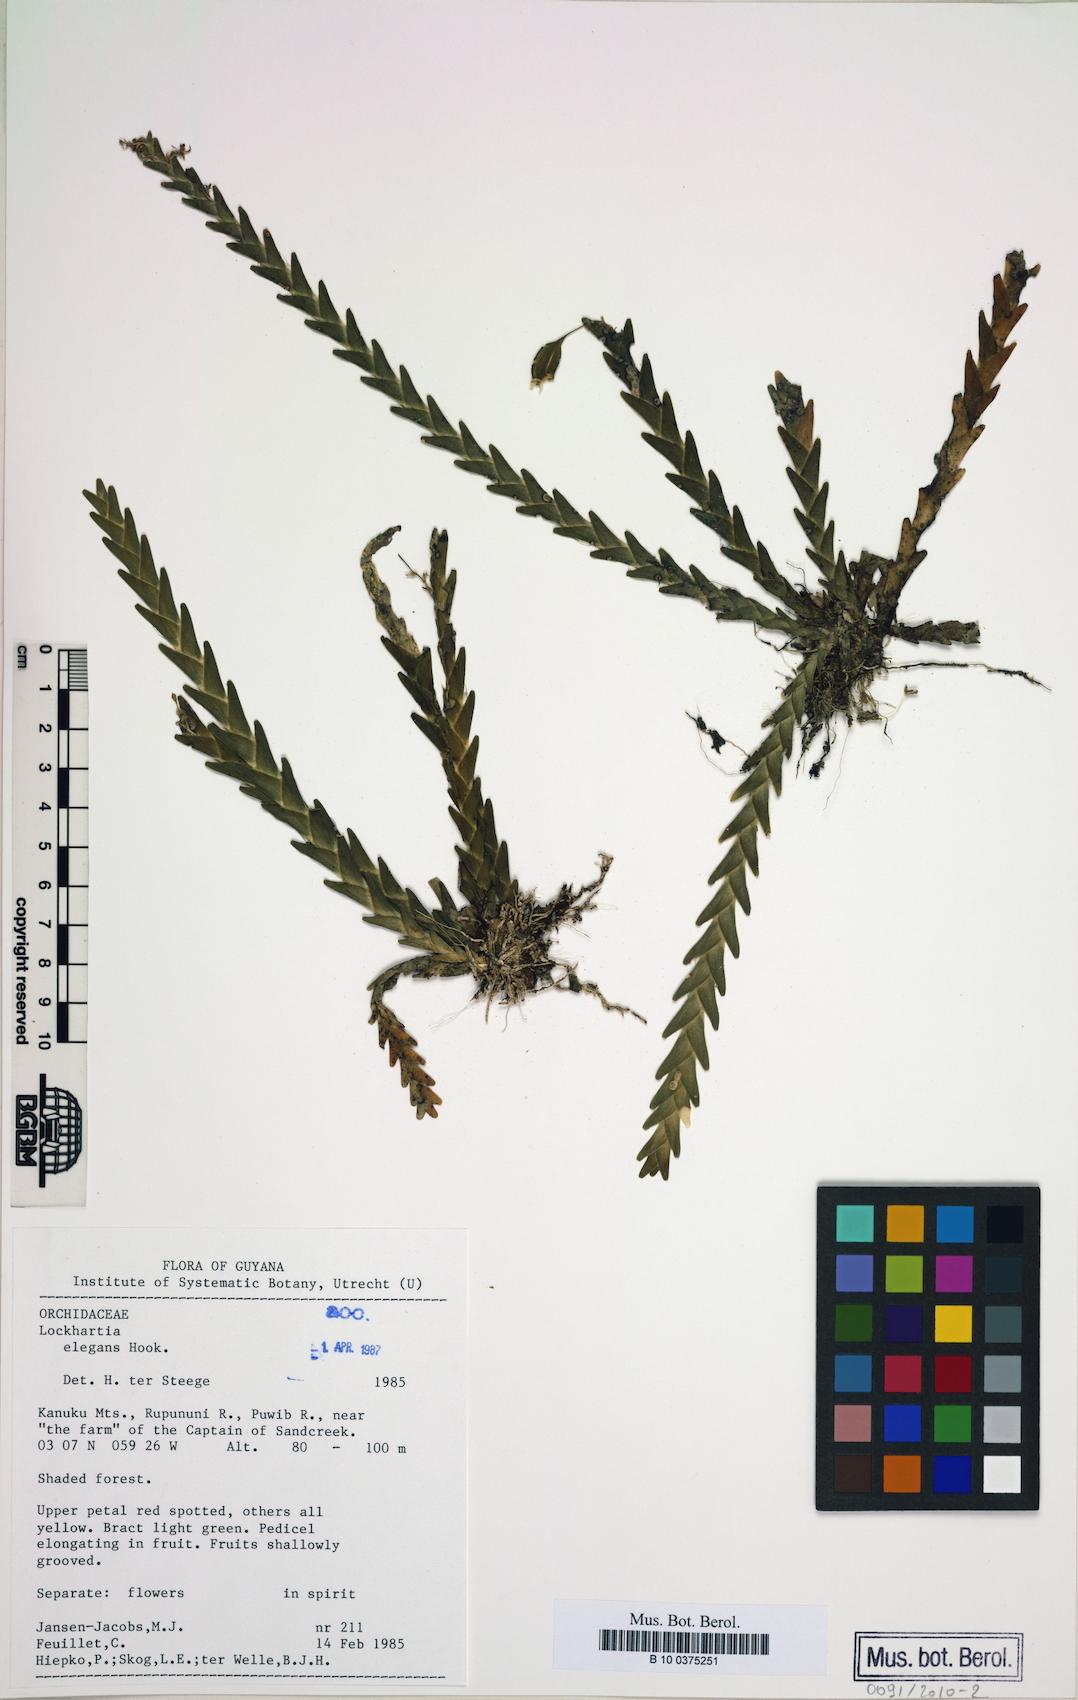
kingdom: Plantae
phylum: Tracheophyta
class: Liliopsida
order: Asparagales
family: Orchidaceae
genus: Lockhartia
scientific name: Lockhartia imbricata
